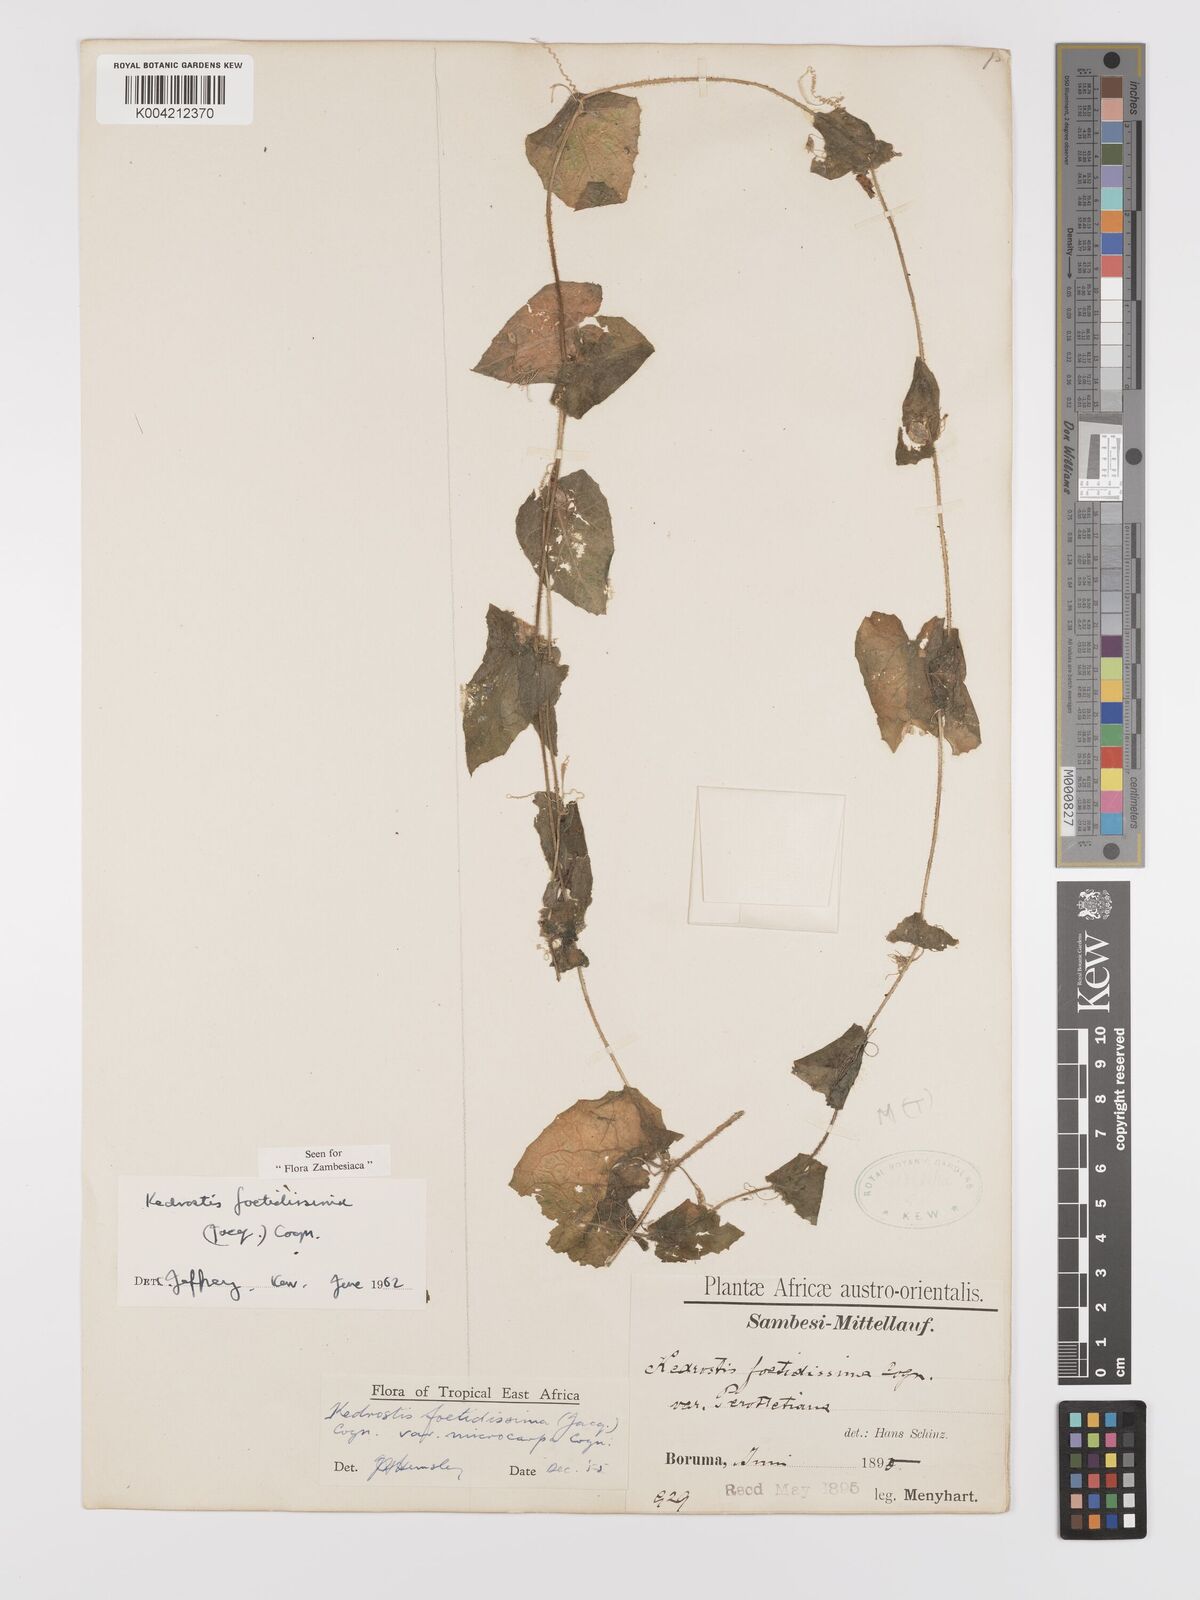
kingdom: Plantae
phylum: Tracheophyta
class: Magnoliopsida
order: Cucurbitales
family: Cucurbitaceae
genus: Kedrostis
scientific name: Kedrostis foetidissima
